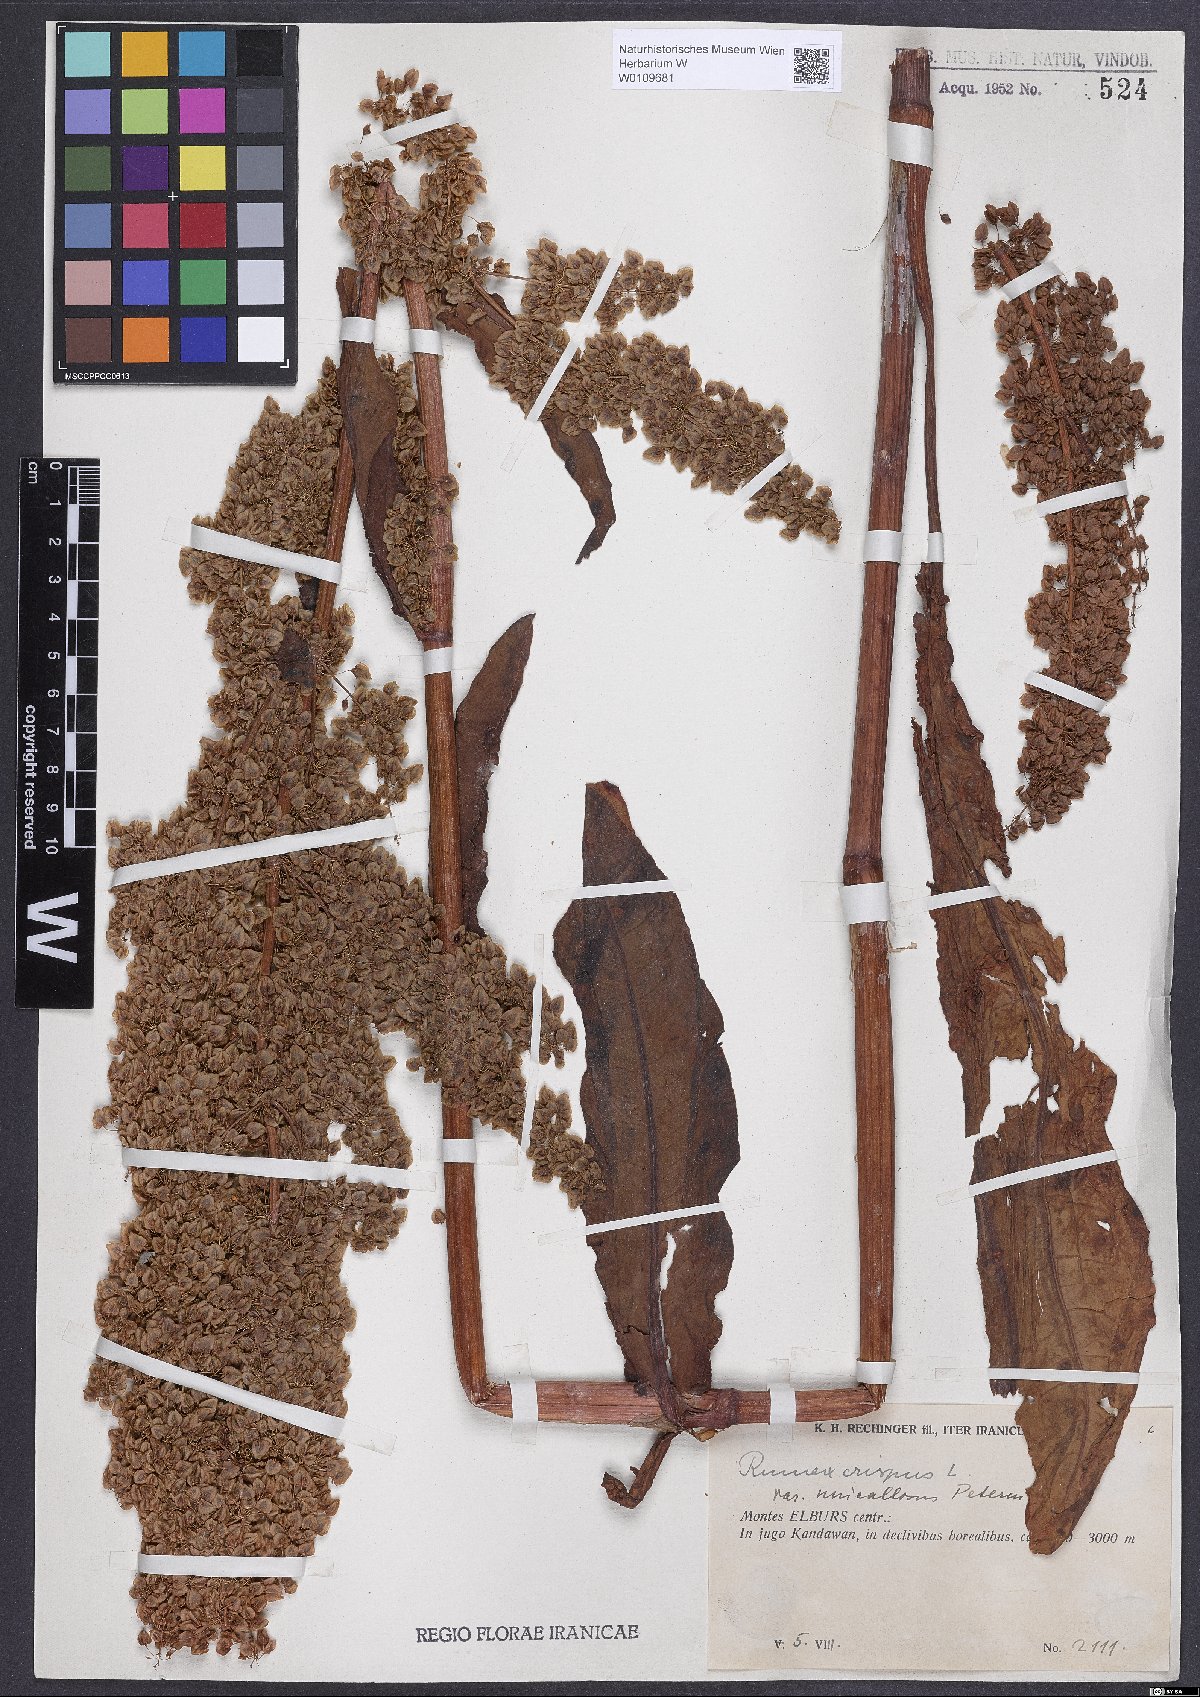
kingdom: Plantae
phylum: Tracheophyta
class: Magnoliopsida
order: Caryophyllales
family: Polygonaceae
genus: Rumex
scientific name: Rumex crispus
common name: Curled dock
